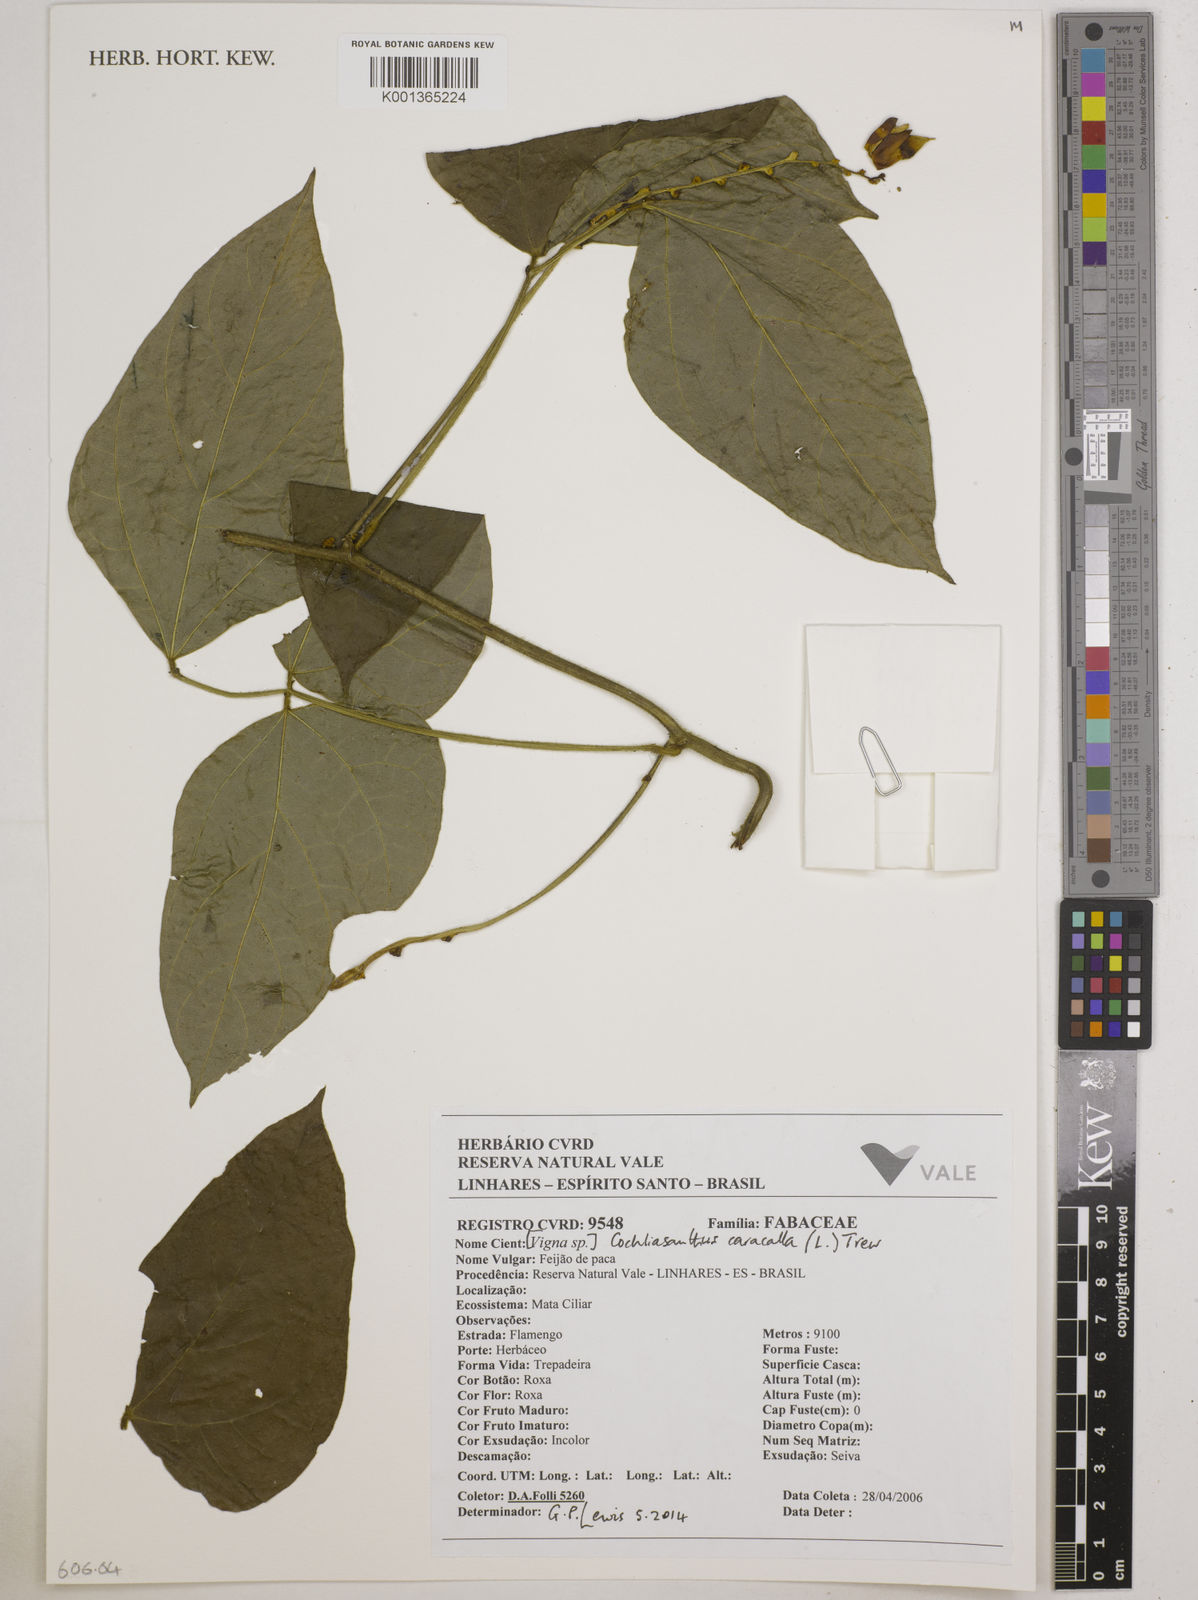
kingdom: Plantae
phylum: Tracheophyta
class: Magnoliopsida
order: Fabales
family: Fabaceae
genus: Cochliasanthus
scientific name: Cochliasanthus caracalla
